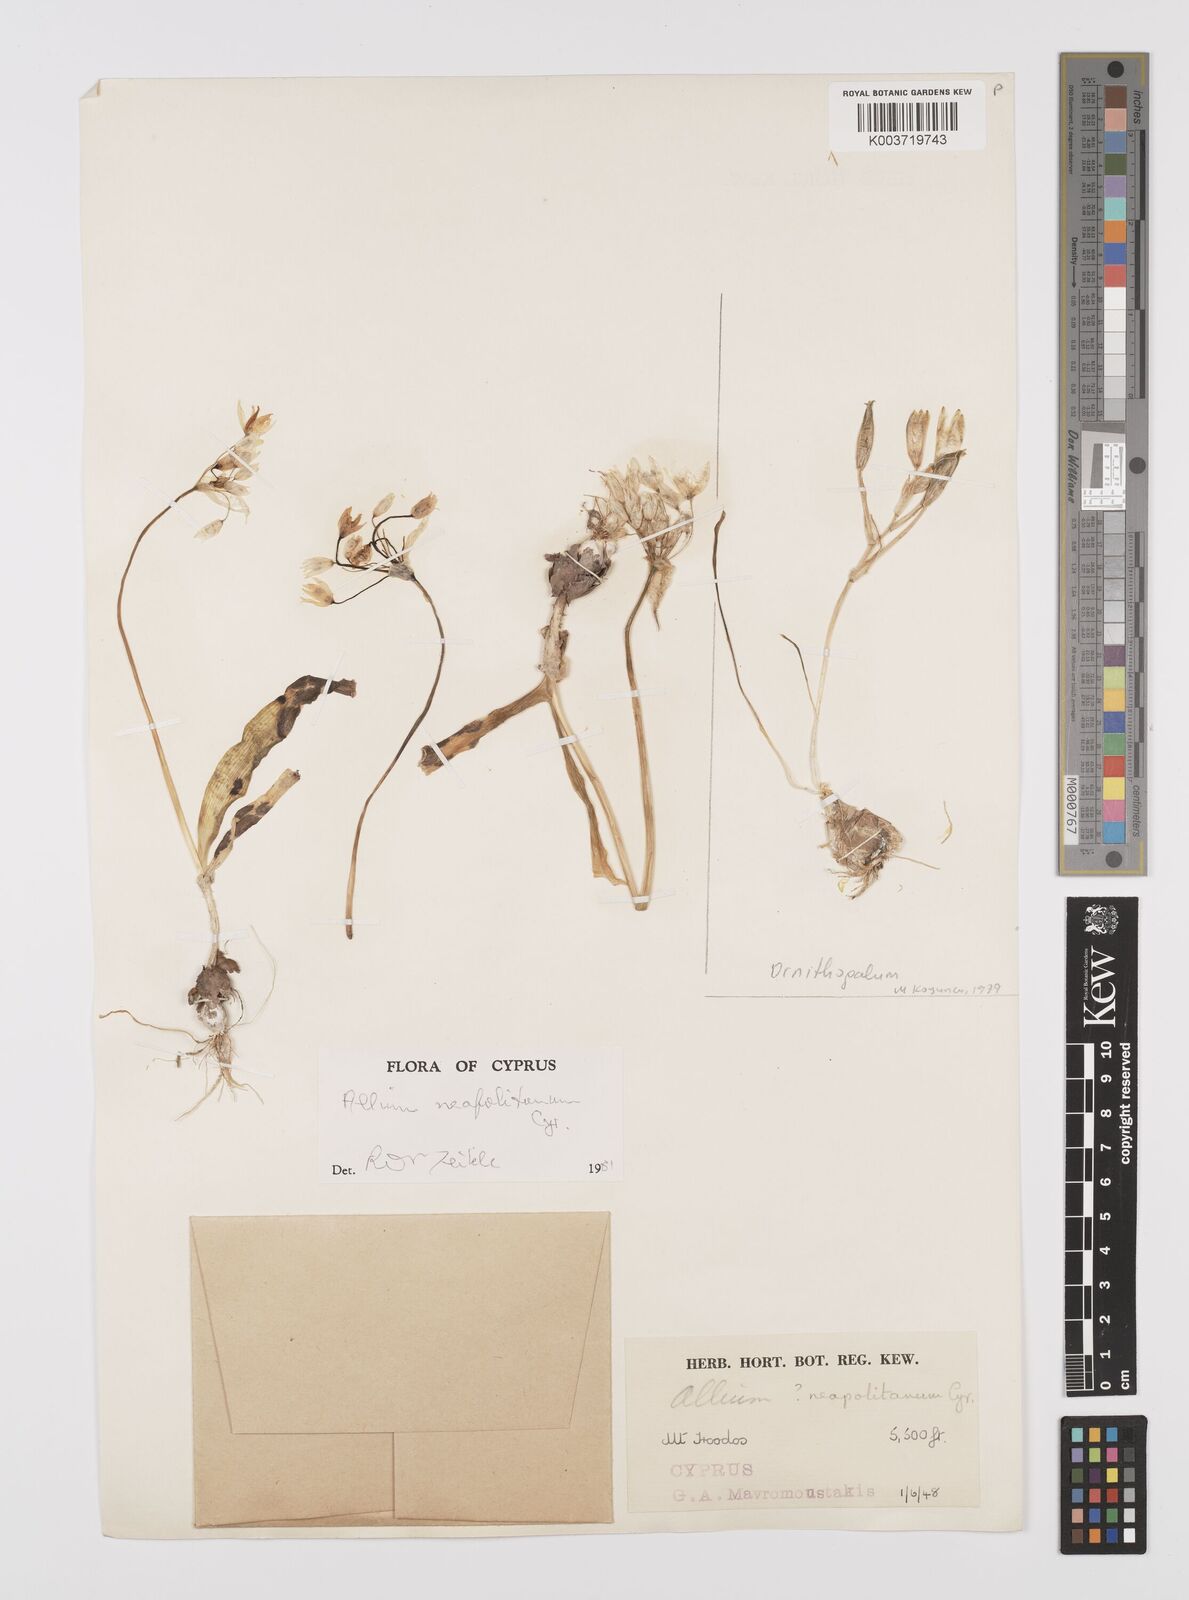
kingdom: Plantae
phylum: Tracheophyta
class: Liliopsida
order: Asparagales
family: Amaryllidaceae
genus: Allium
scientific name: Allium neapolitanum
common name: Neapolitan garlic
